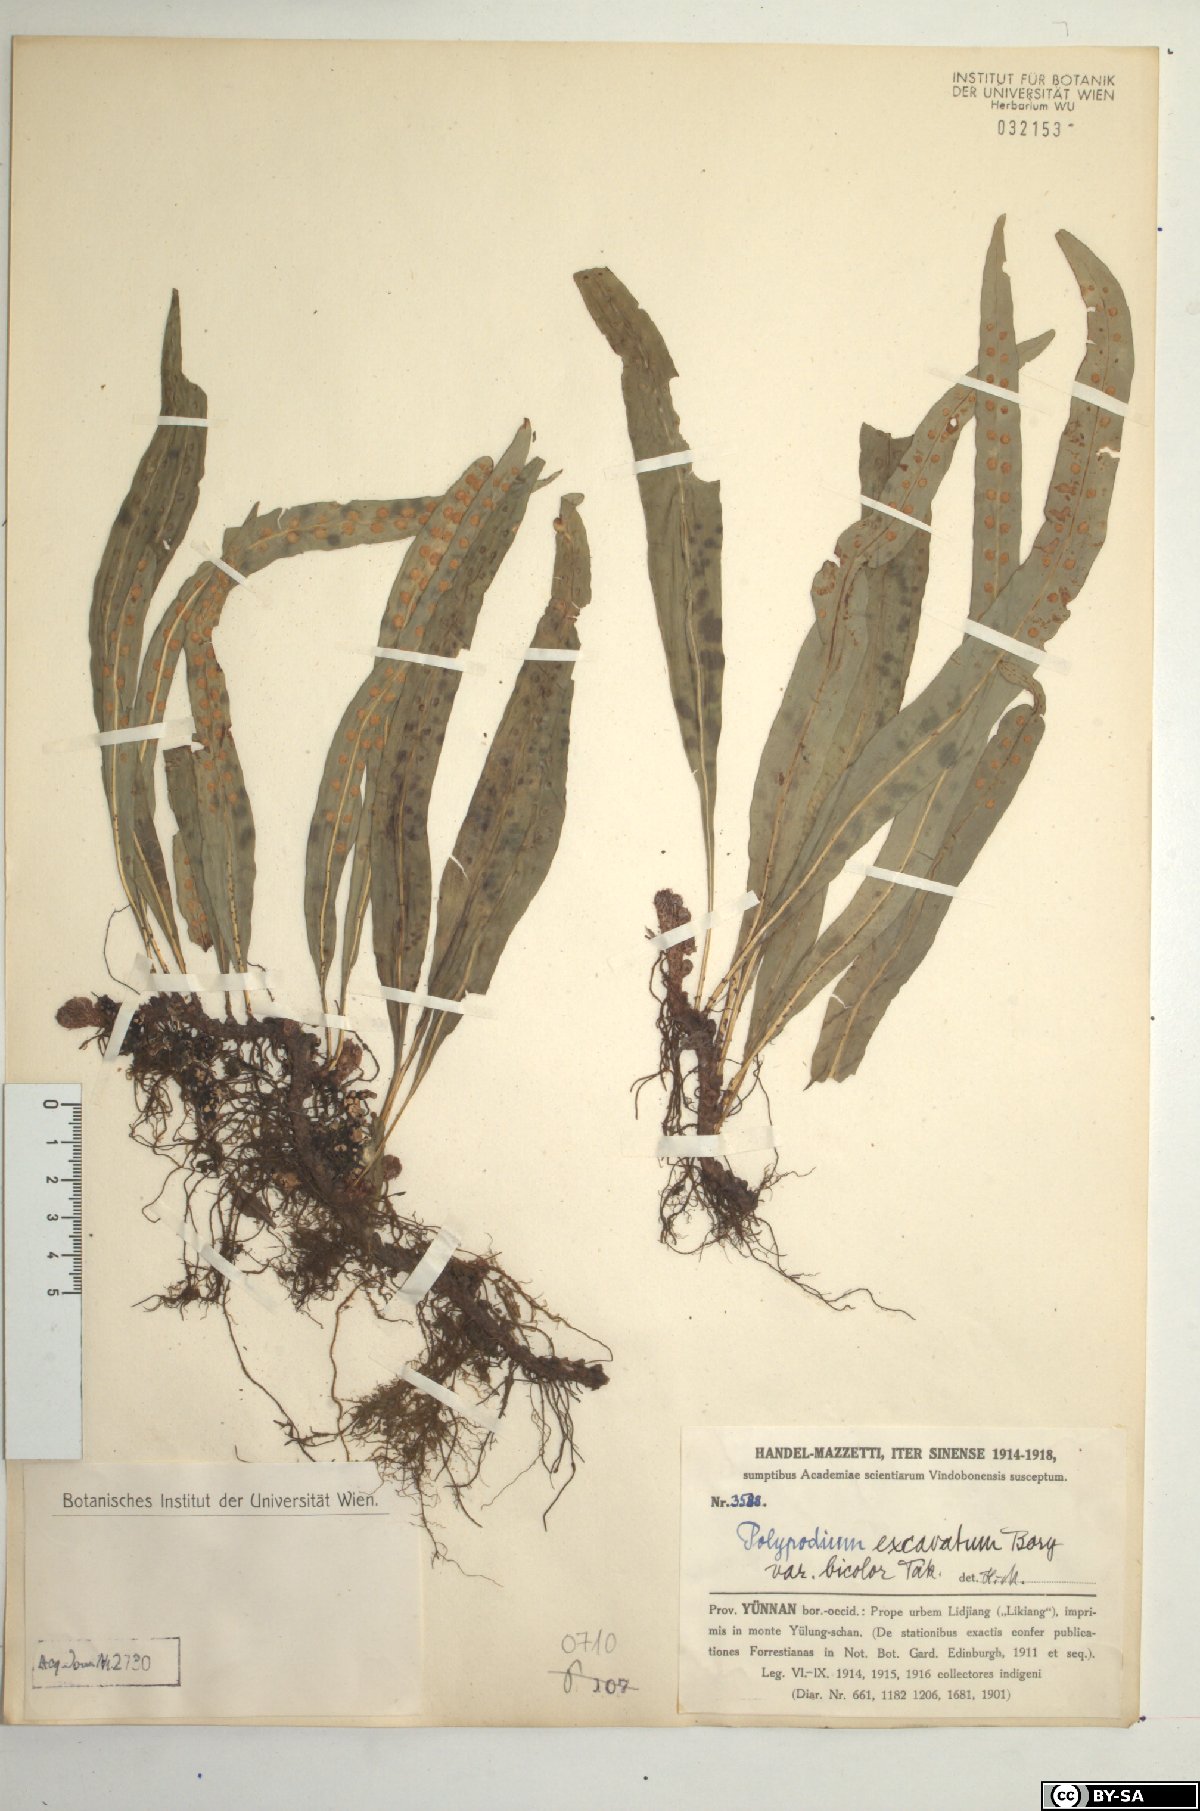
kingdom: Plantae
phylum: Tracheophyta
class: Polypodiopsida
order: Polypodiales
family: Polypodiaceae
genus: Lepisorus
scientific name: Lepisorus bicolor
